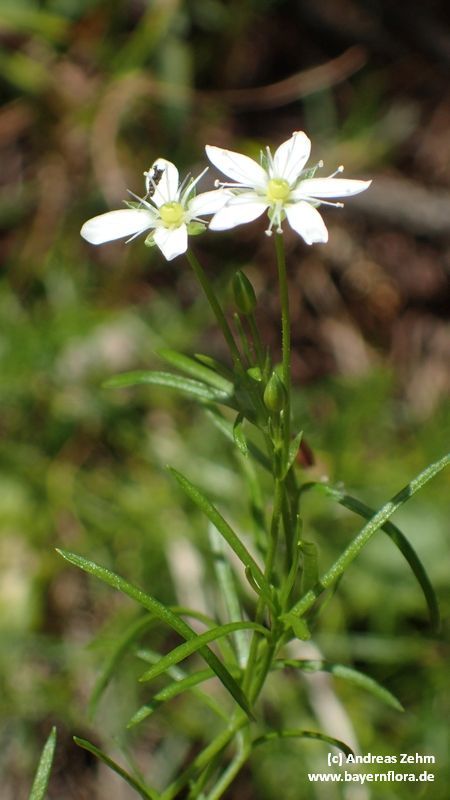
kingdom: Plantae
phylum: Tracheophyta
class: Magnoliopsida
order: Caryophyllales
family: Caryophyllaceae
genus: Moehringia
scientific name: Moehringia muscosa
